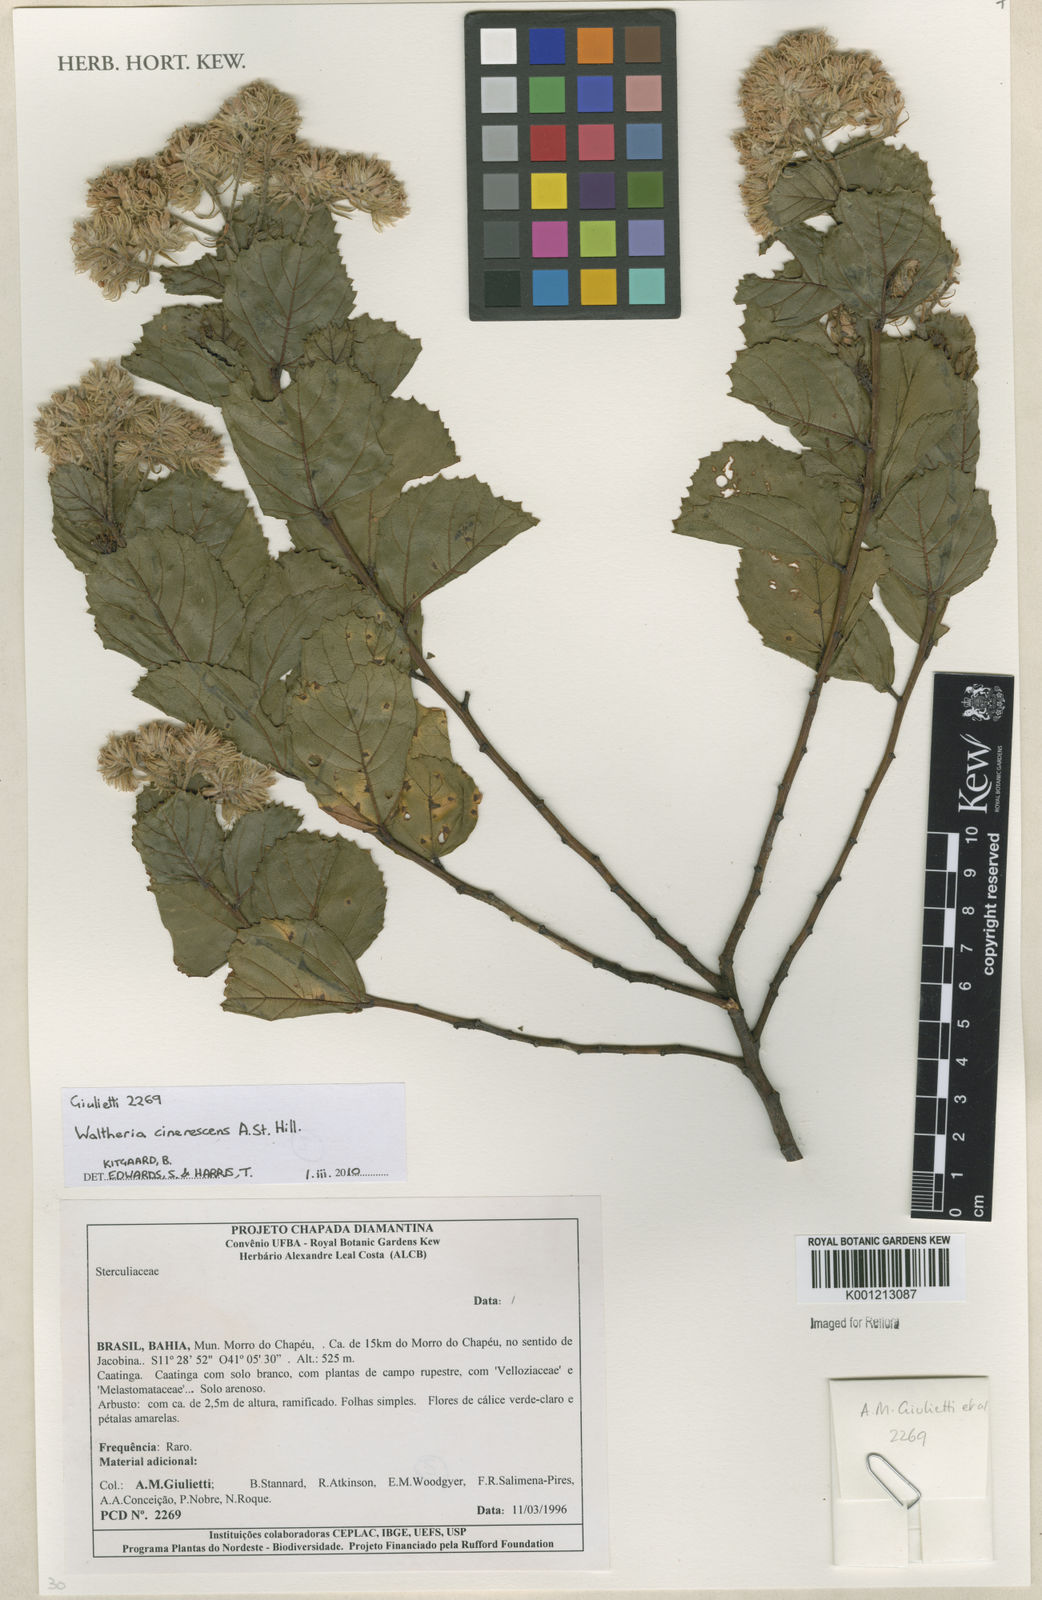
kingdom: Plantae
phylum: Tracheophyta
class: Magnoliopsida
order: Malvales
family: Malvaceae
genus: Waltheria
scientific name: Waltheria cinerescens
